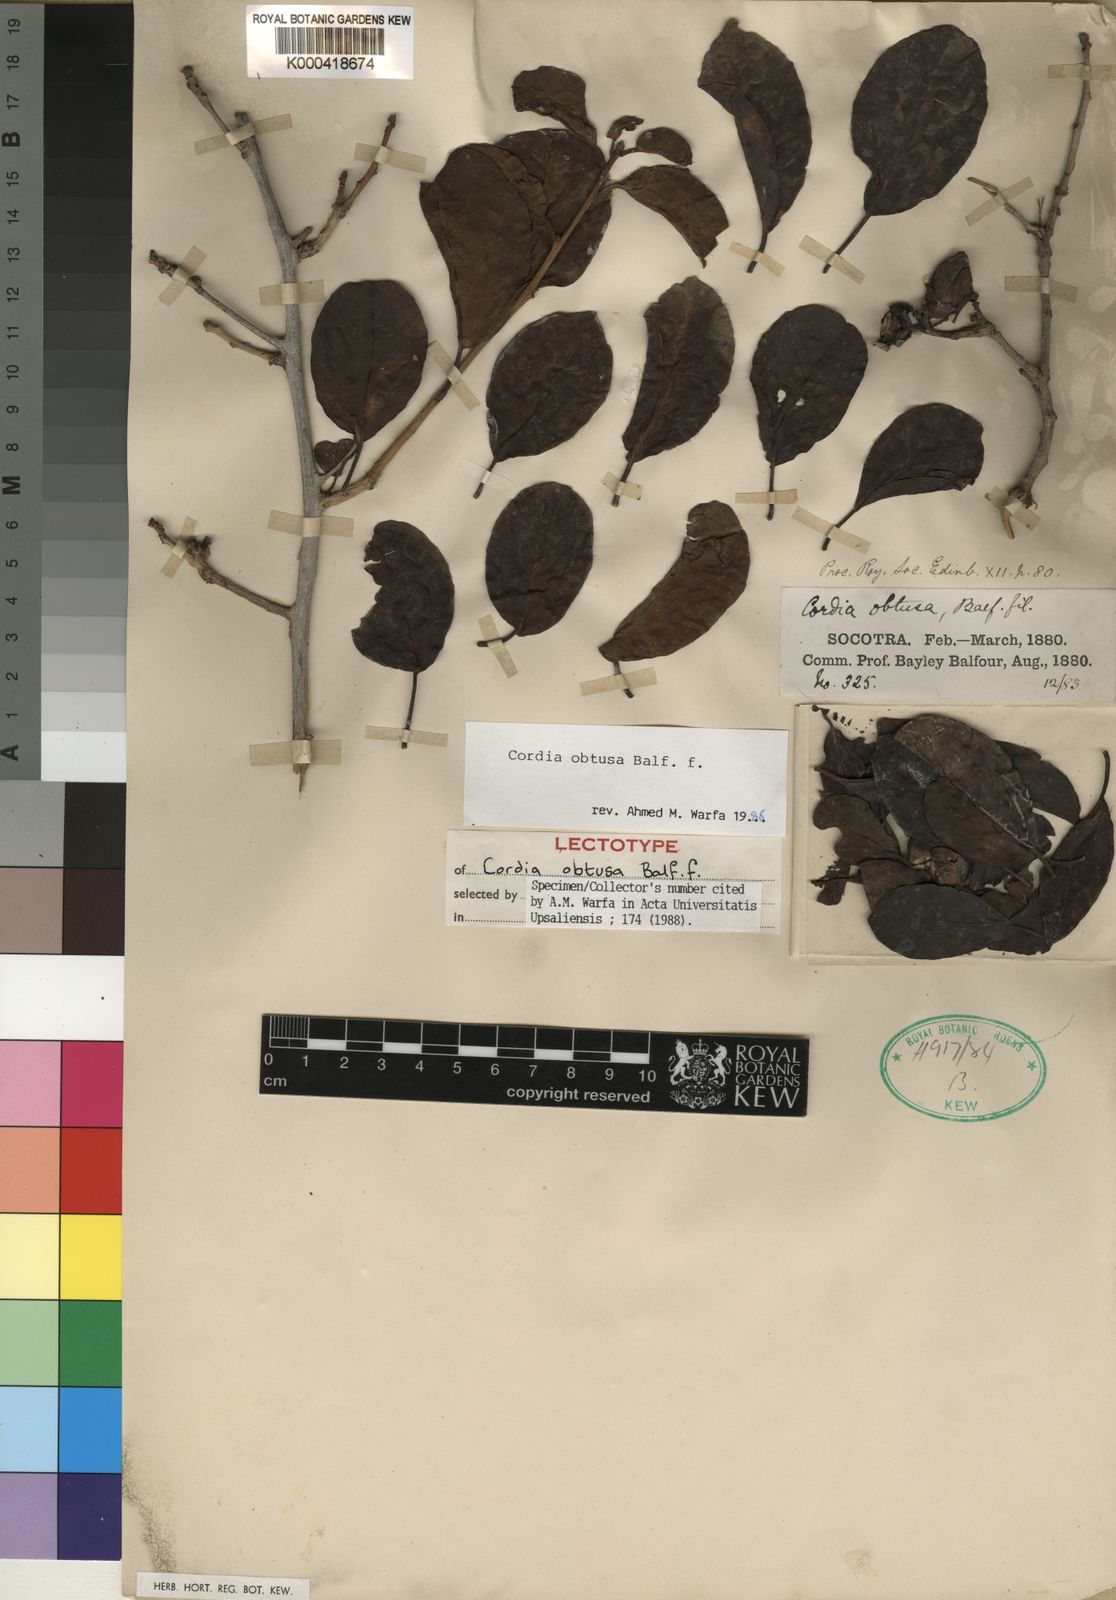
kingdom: Plantae
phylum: Tracheophyta
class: Magnoliopsida
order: Boraginales
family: Cordiaceae
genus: Cordia
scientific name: Cordia obtusa
